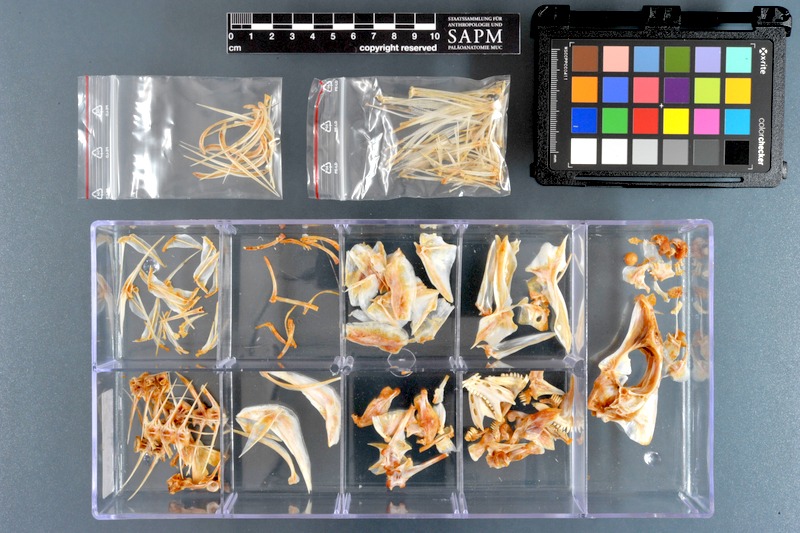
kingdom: Animalia
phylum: Chordata
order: Perciformes
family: Lethrinidae
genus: Lethrinus
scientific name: Lethrinus lentjan
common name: Redspot emperor
